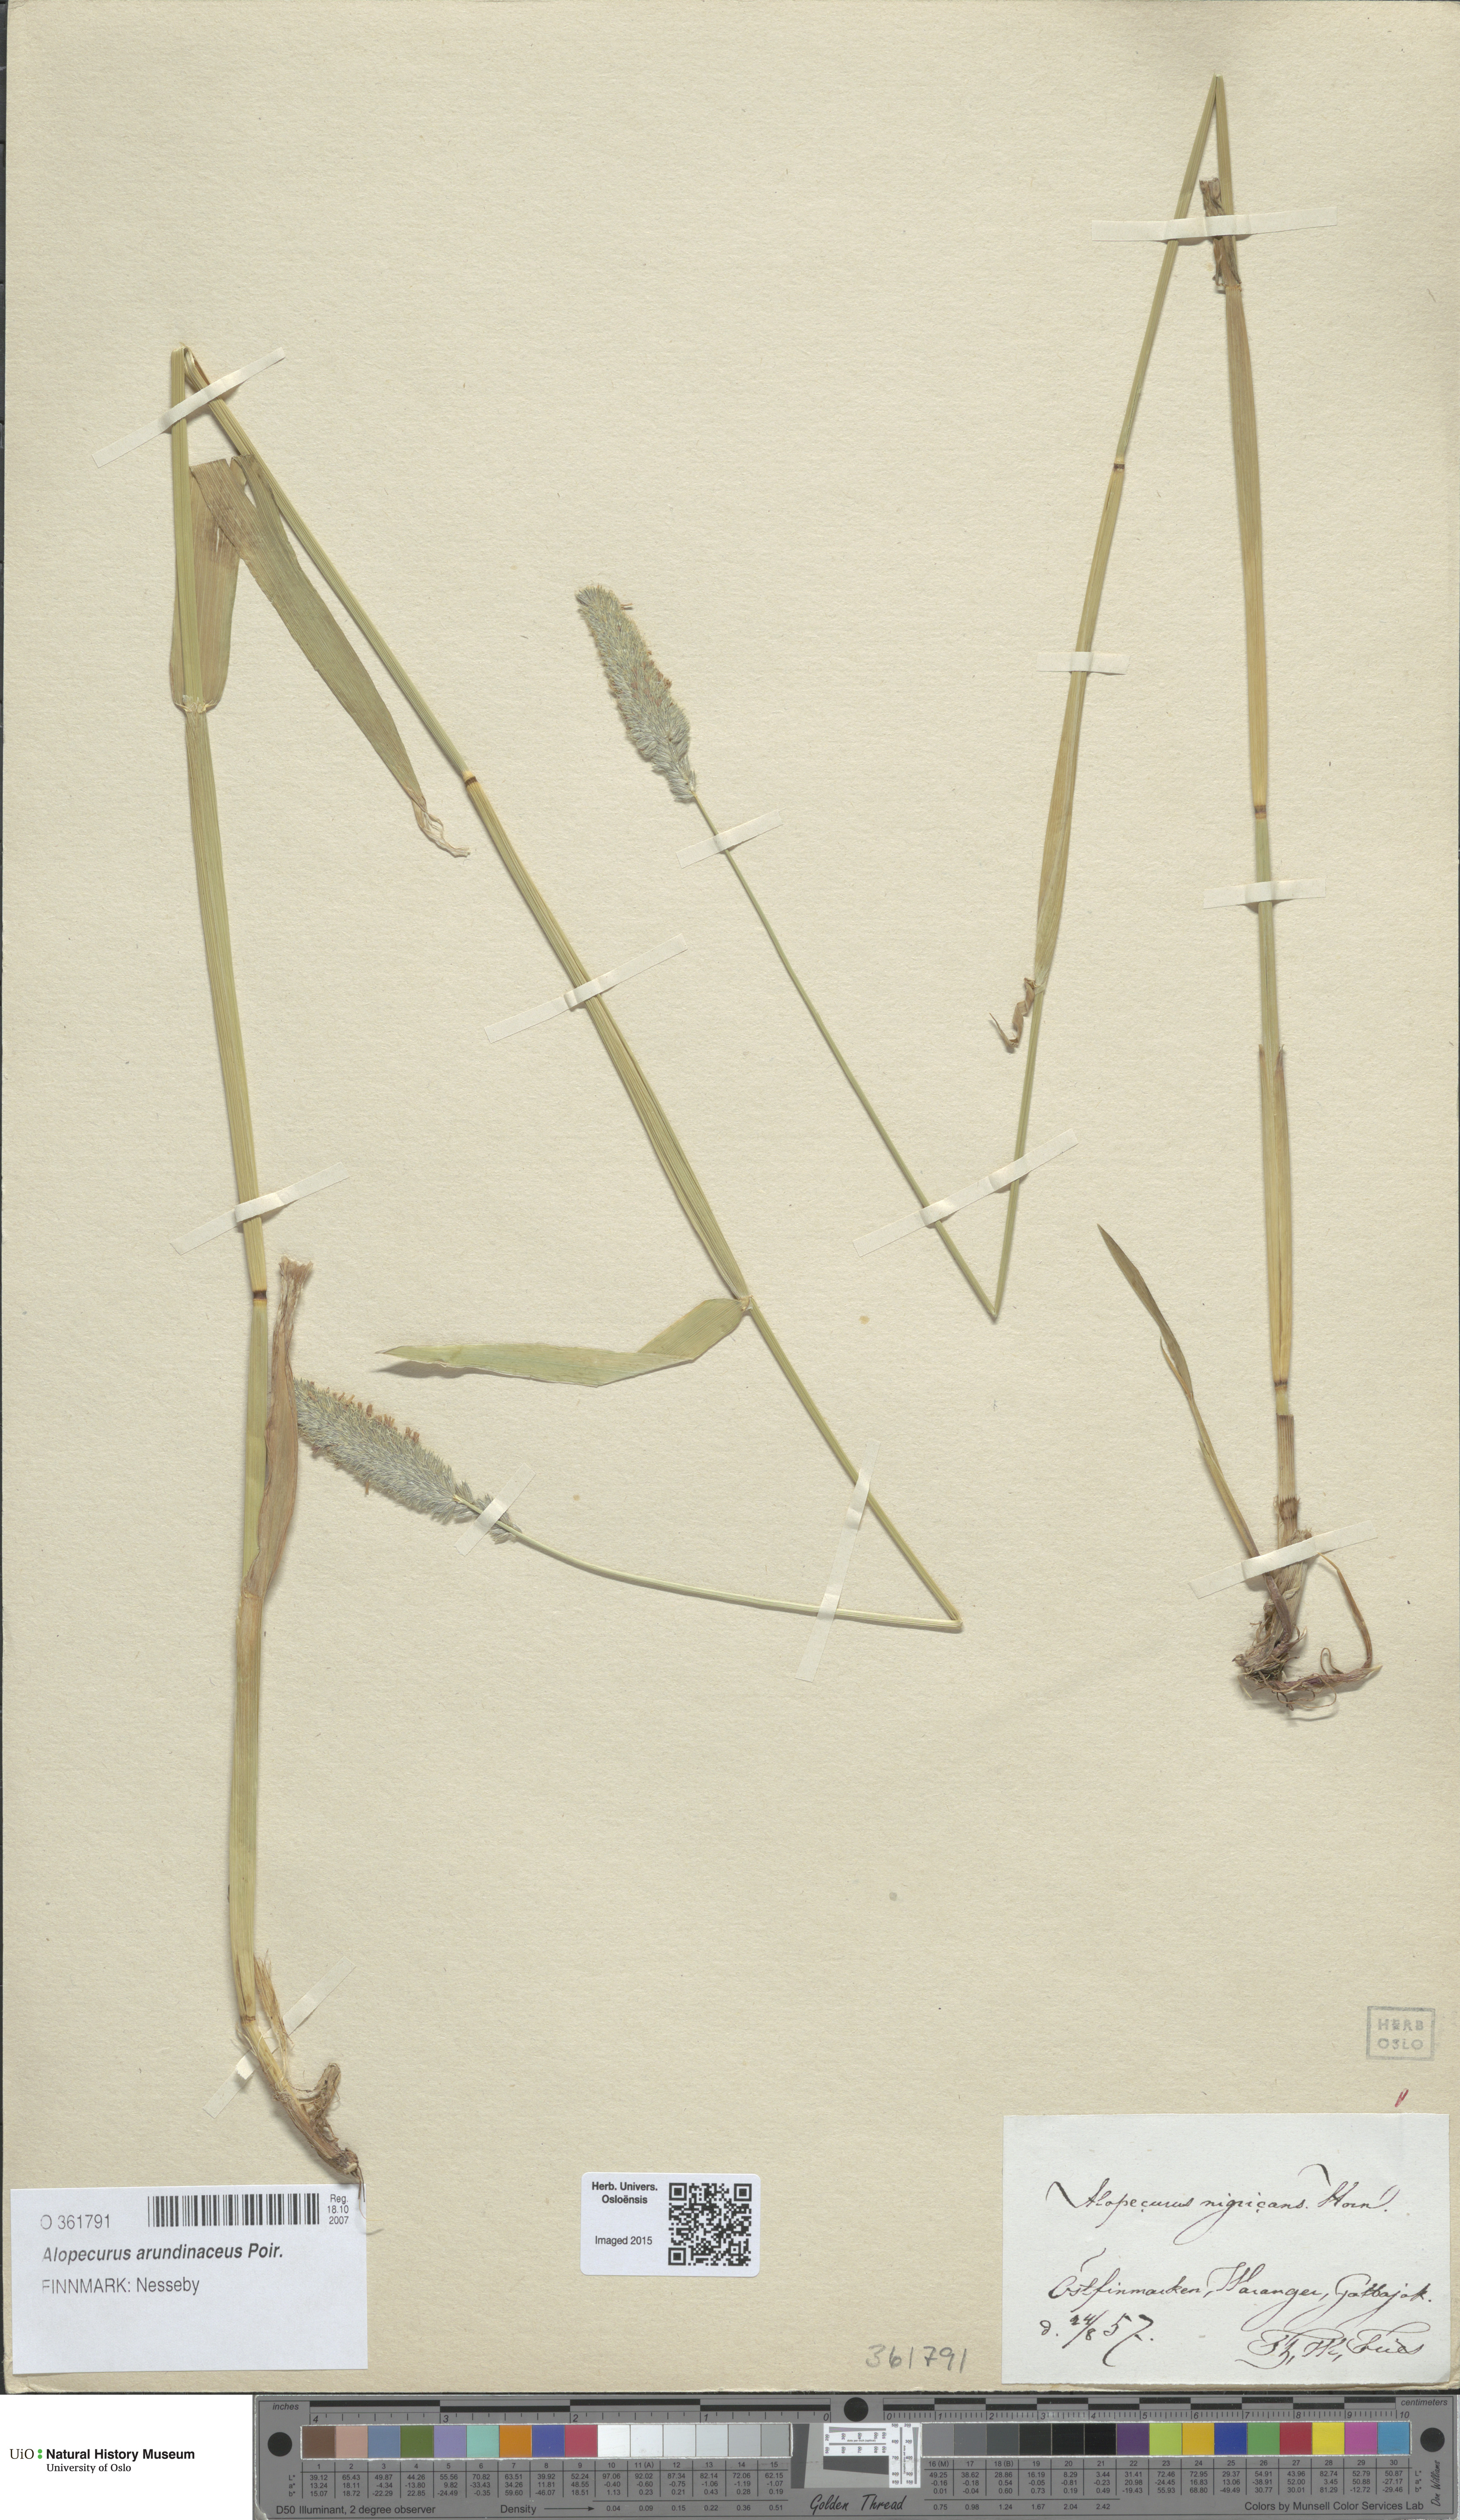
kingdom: Plantae
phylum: Tracheophyta
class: Liliopsida
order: Poales
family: Poaceae
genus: Alopecurus
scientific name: Alopecurus arundinaceus
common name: Creeping meadow foxtail
